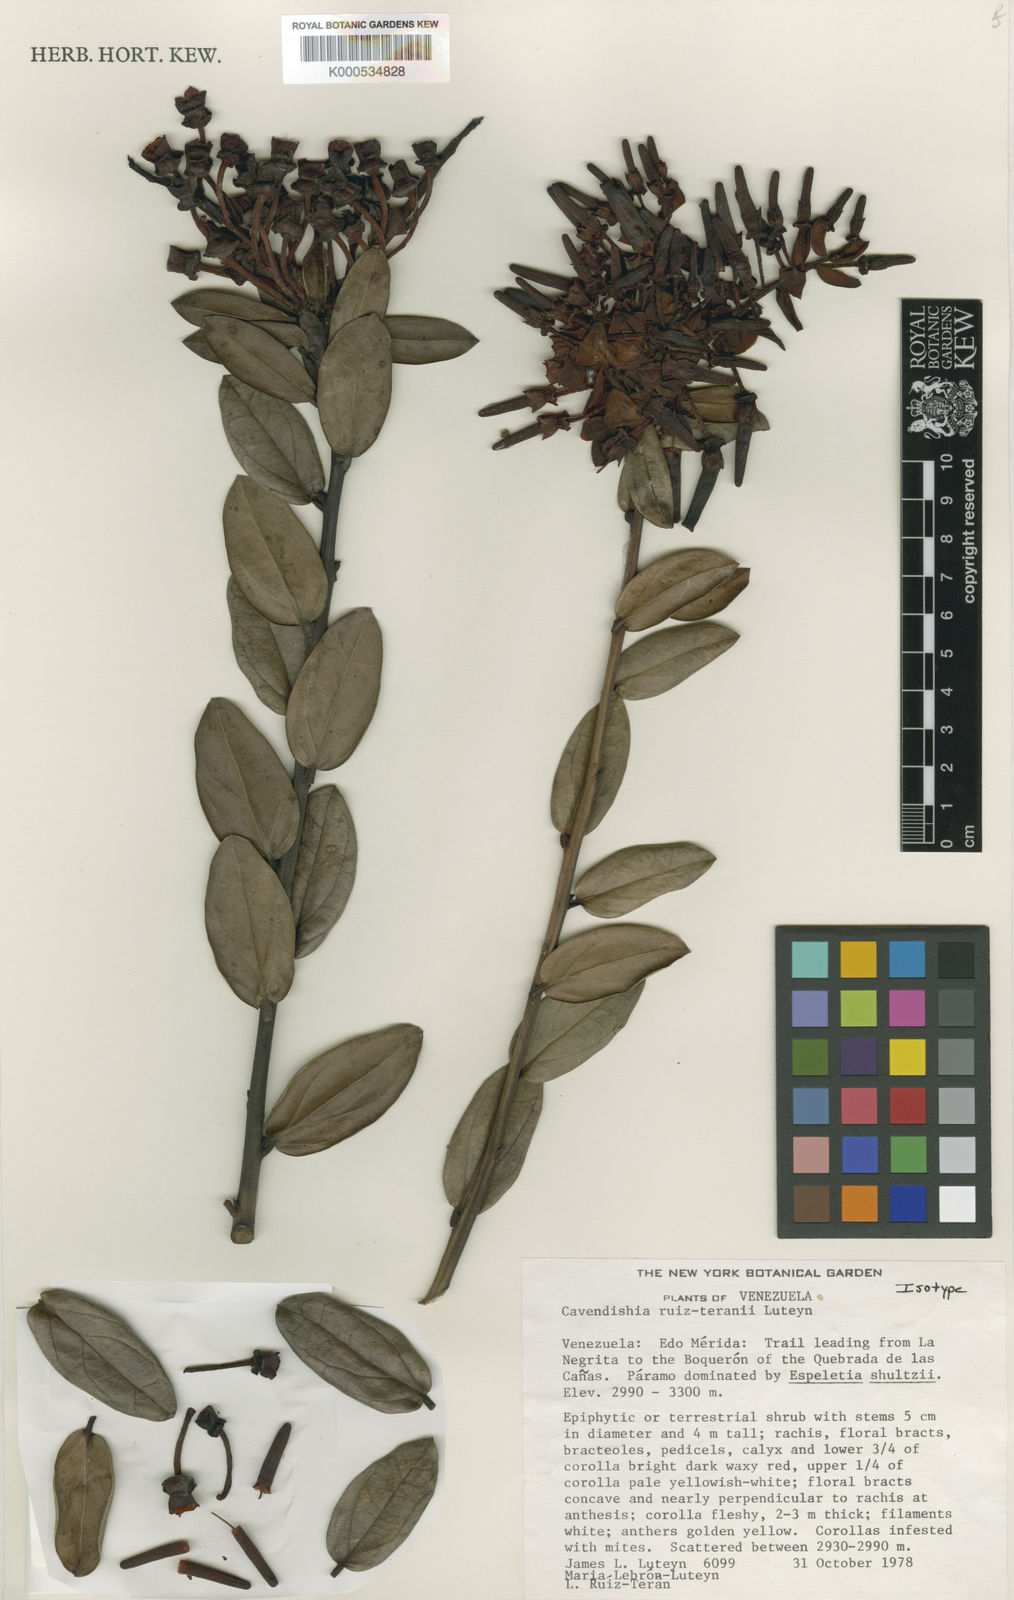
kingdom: Plantae
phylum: Tracheophyta
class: Magnoliopsida
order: Ericales
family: Ericaceae
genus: Cavendishia
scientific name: Cavendishia ruiz-teranii
